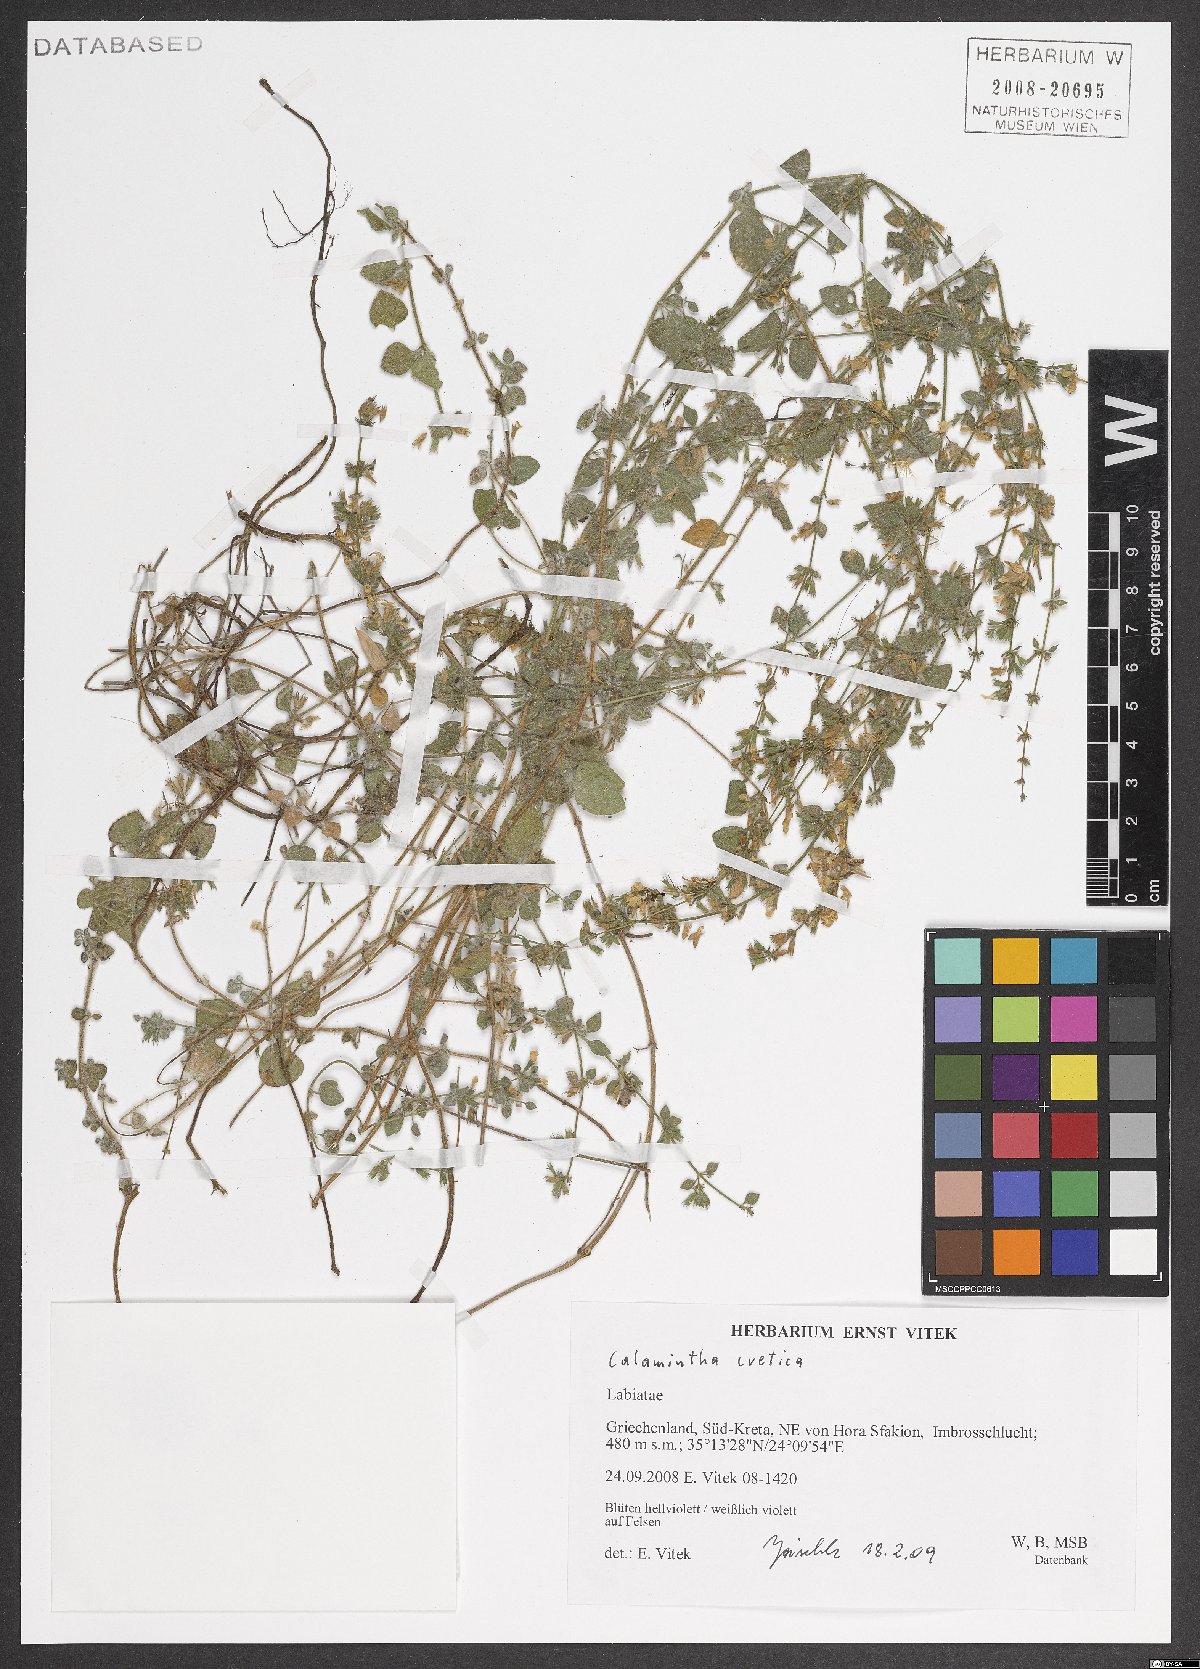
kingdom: Plantae
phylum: Tracheophyta
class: Magnoliopsida
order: Lamiales
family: Lamiaceae
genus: Clinopodium
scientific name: Clinopodium creticum
